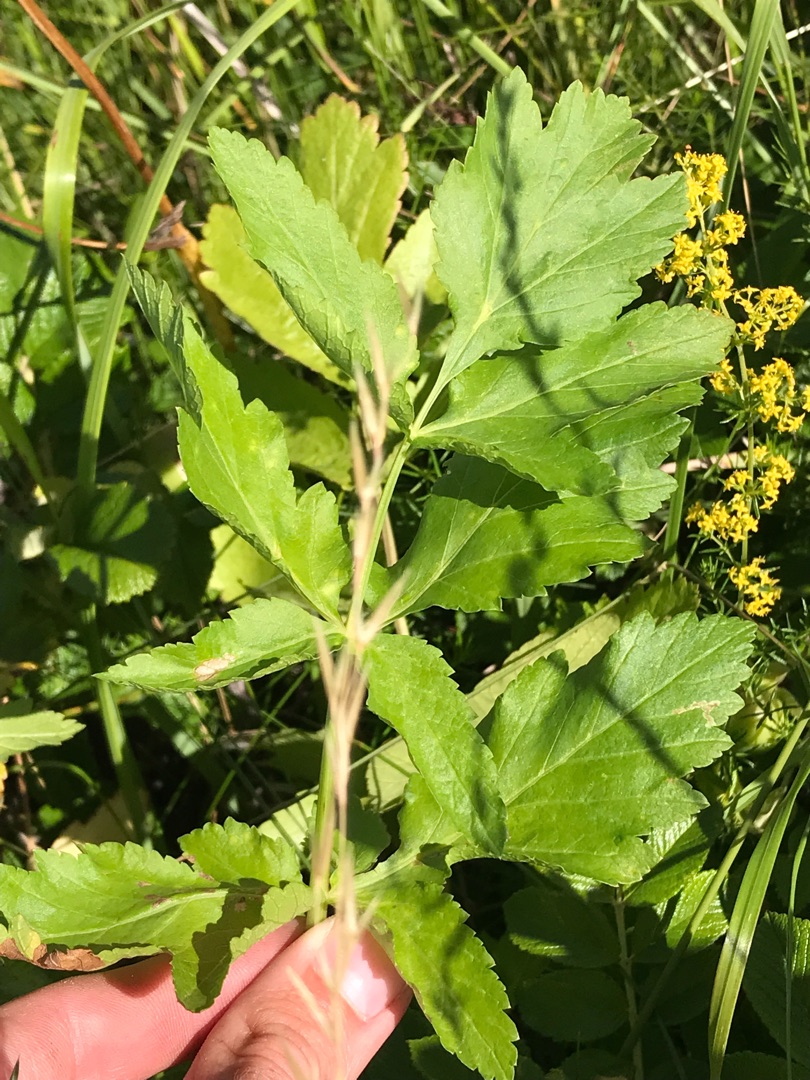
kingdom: Plantae
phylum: Tracheophyta
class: Magnoliopsida
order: Apiales
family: Apiaceae
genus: Pastinaca
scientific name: Pastinaca sativa
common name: Pastinak
